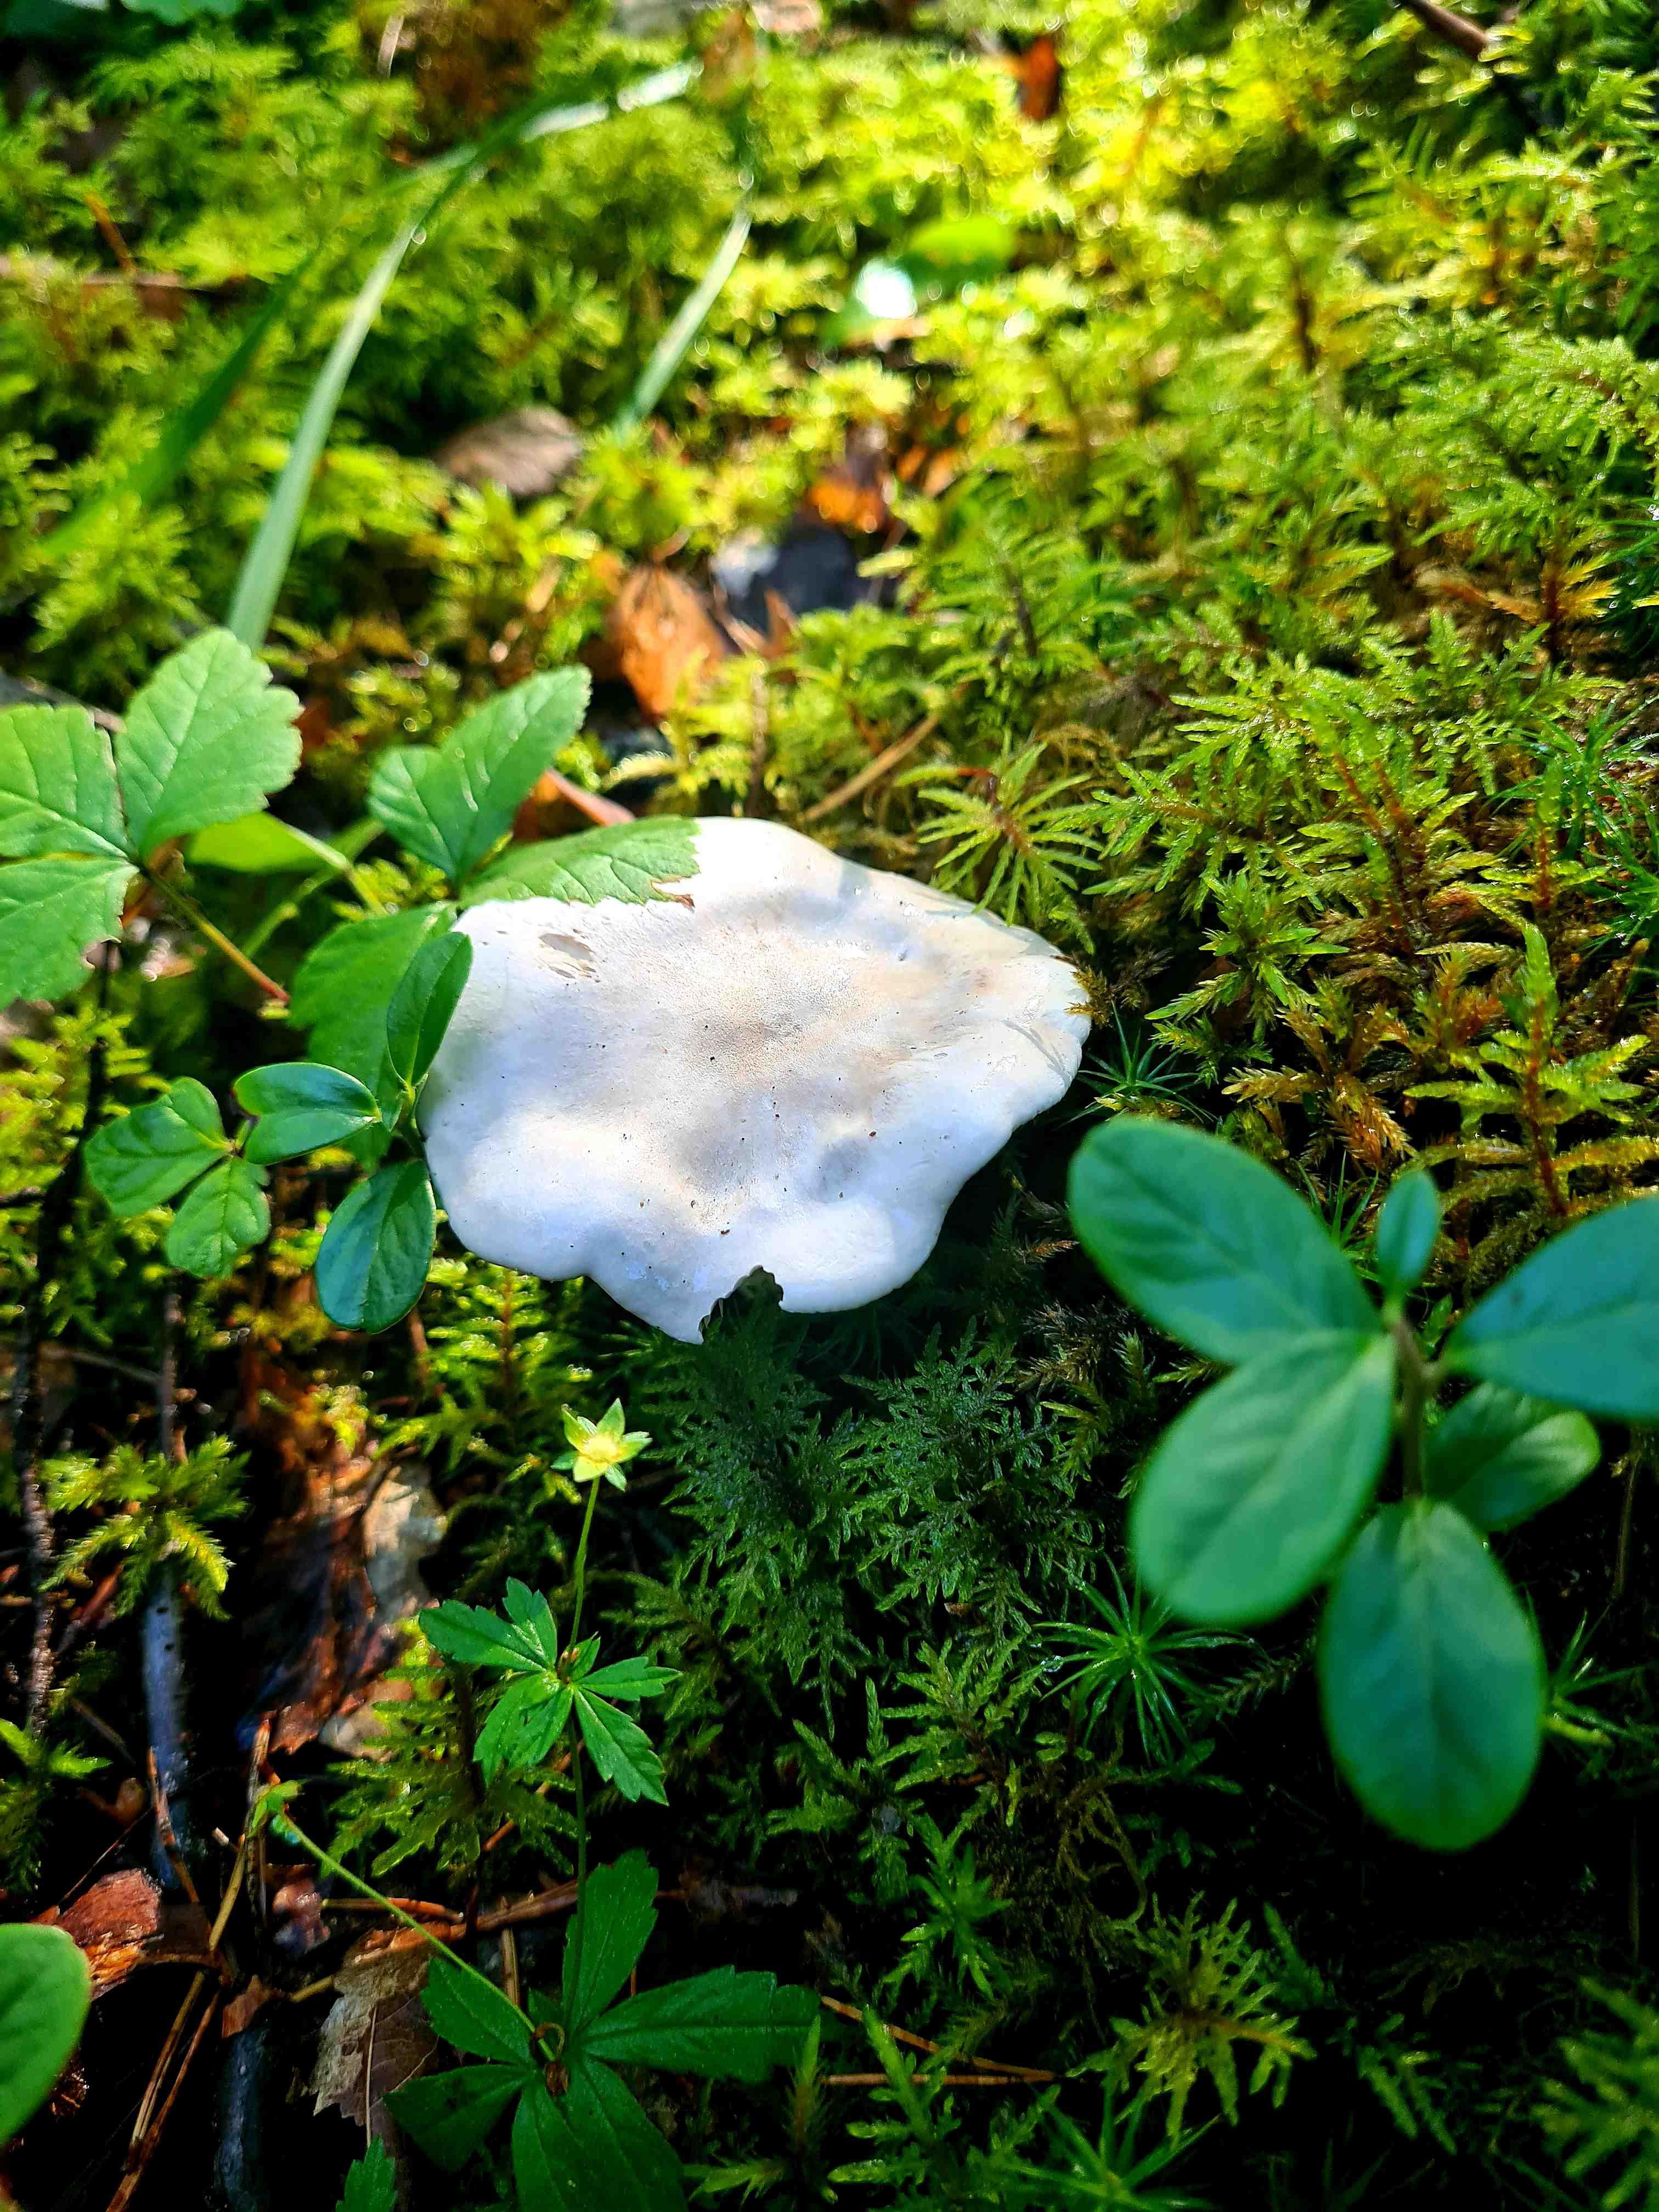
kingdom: Fungi
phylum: Basidiomycota
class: Agaricomycetes
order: Agaricales
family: Entolomataceae
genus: Clitopilus
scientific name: Clitopilus prunulus
